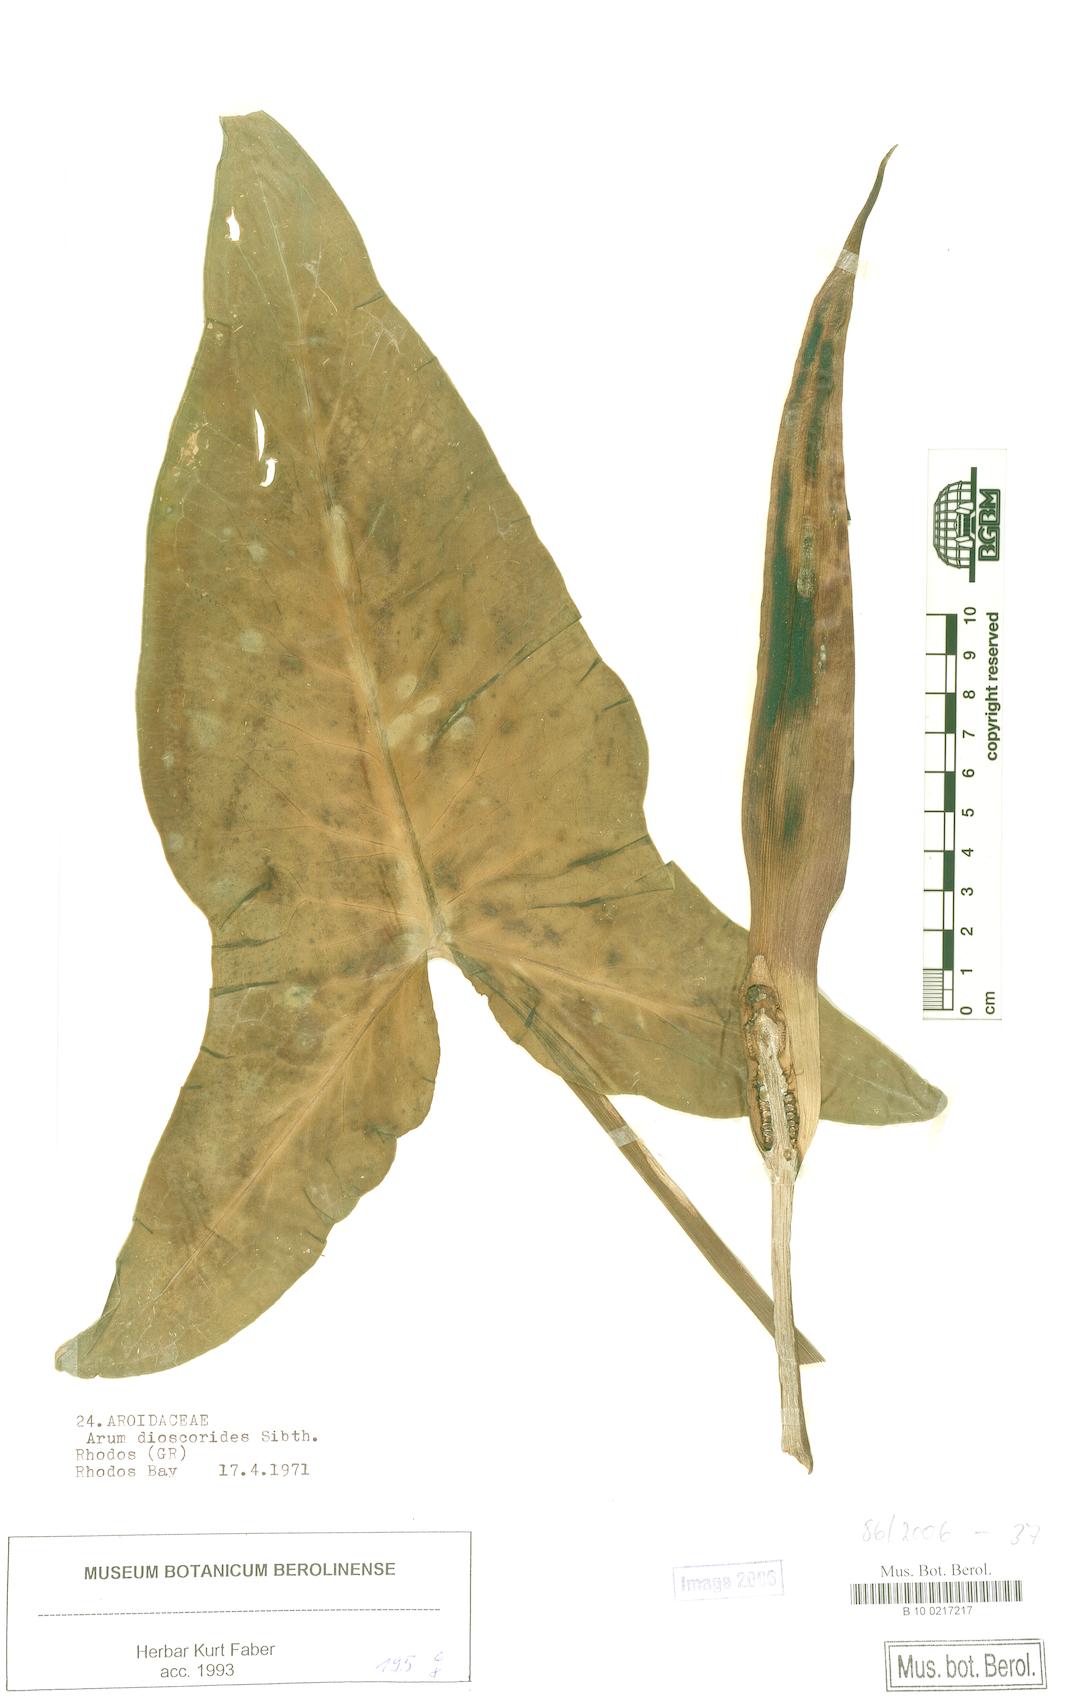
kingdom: Plantae
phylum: Tracheophyta
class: Liliopsida
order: Alismatales
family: Araceae
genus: Arum
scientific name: Arum dioscoridis
